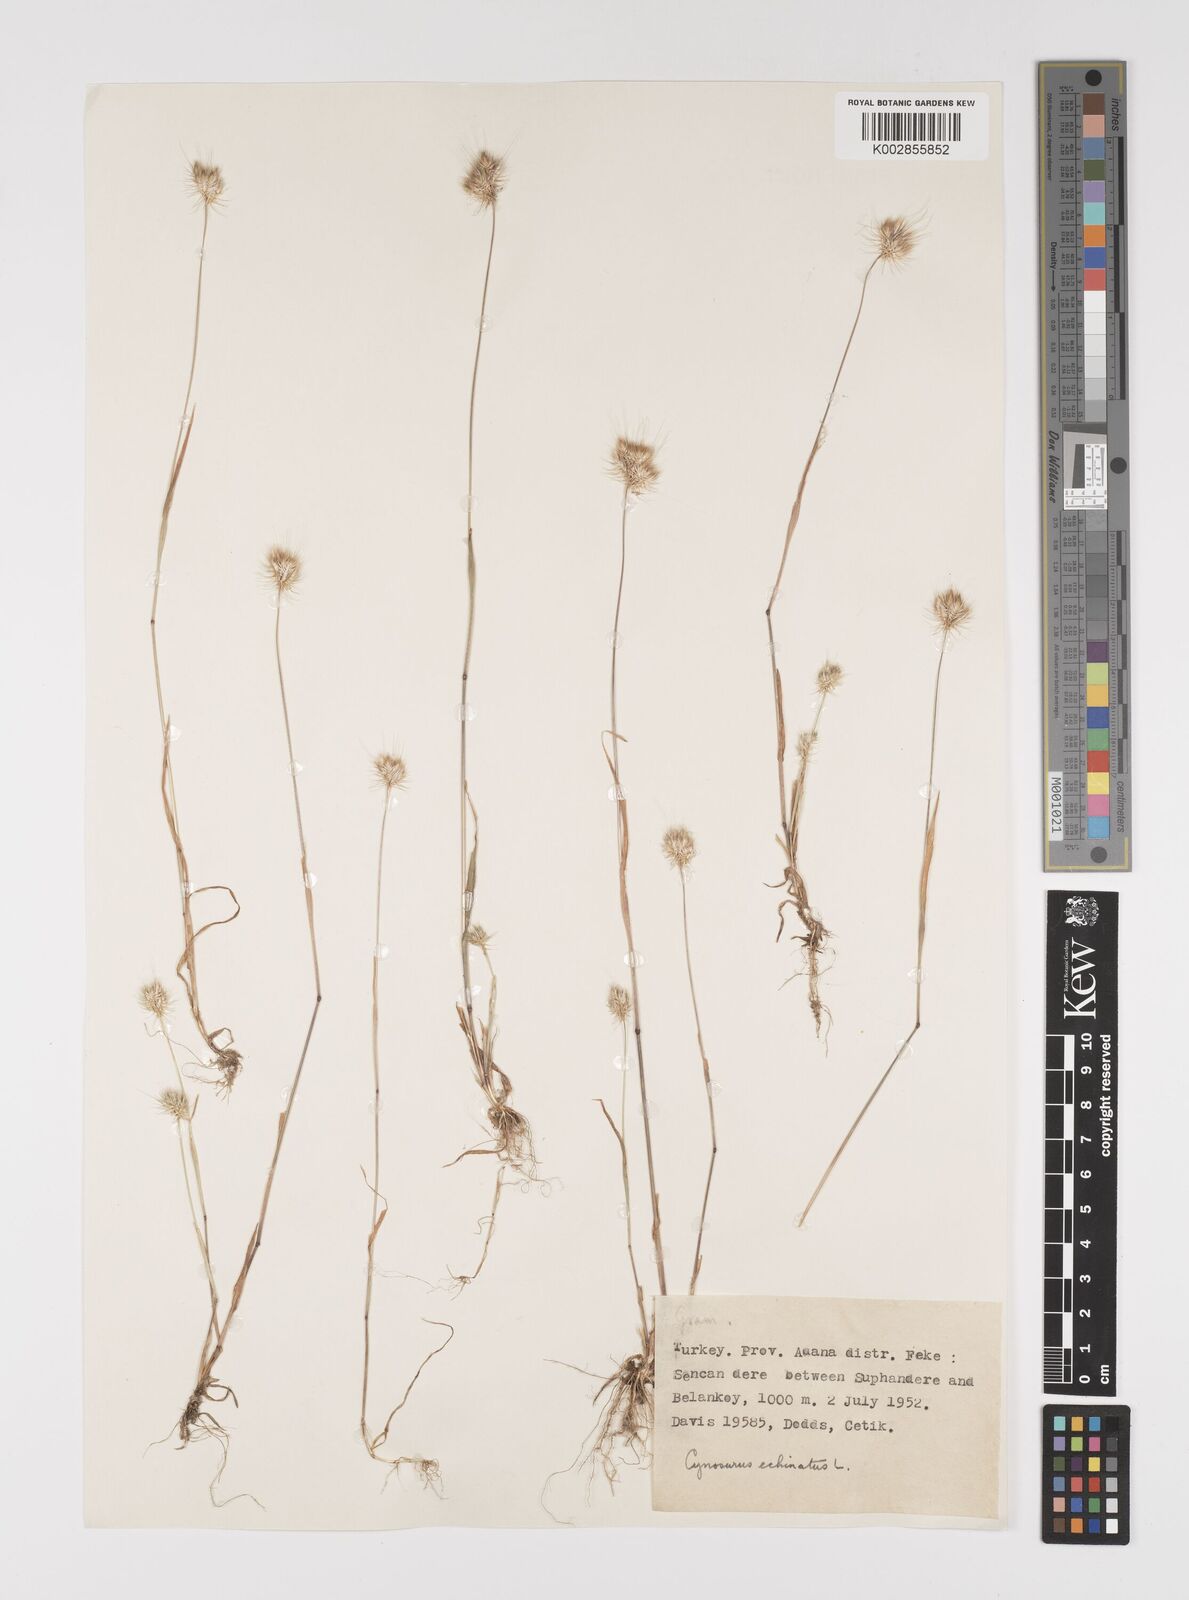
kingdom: Plantae
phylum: Tracheophyta
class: Liliopsida
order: Poales
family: Poaceae
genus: Cynosurus
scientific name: Cynosurus echinatus
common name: Rough dog's-tail
